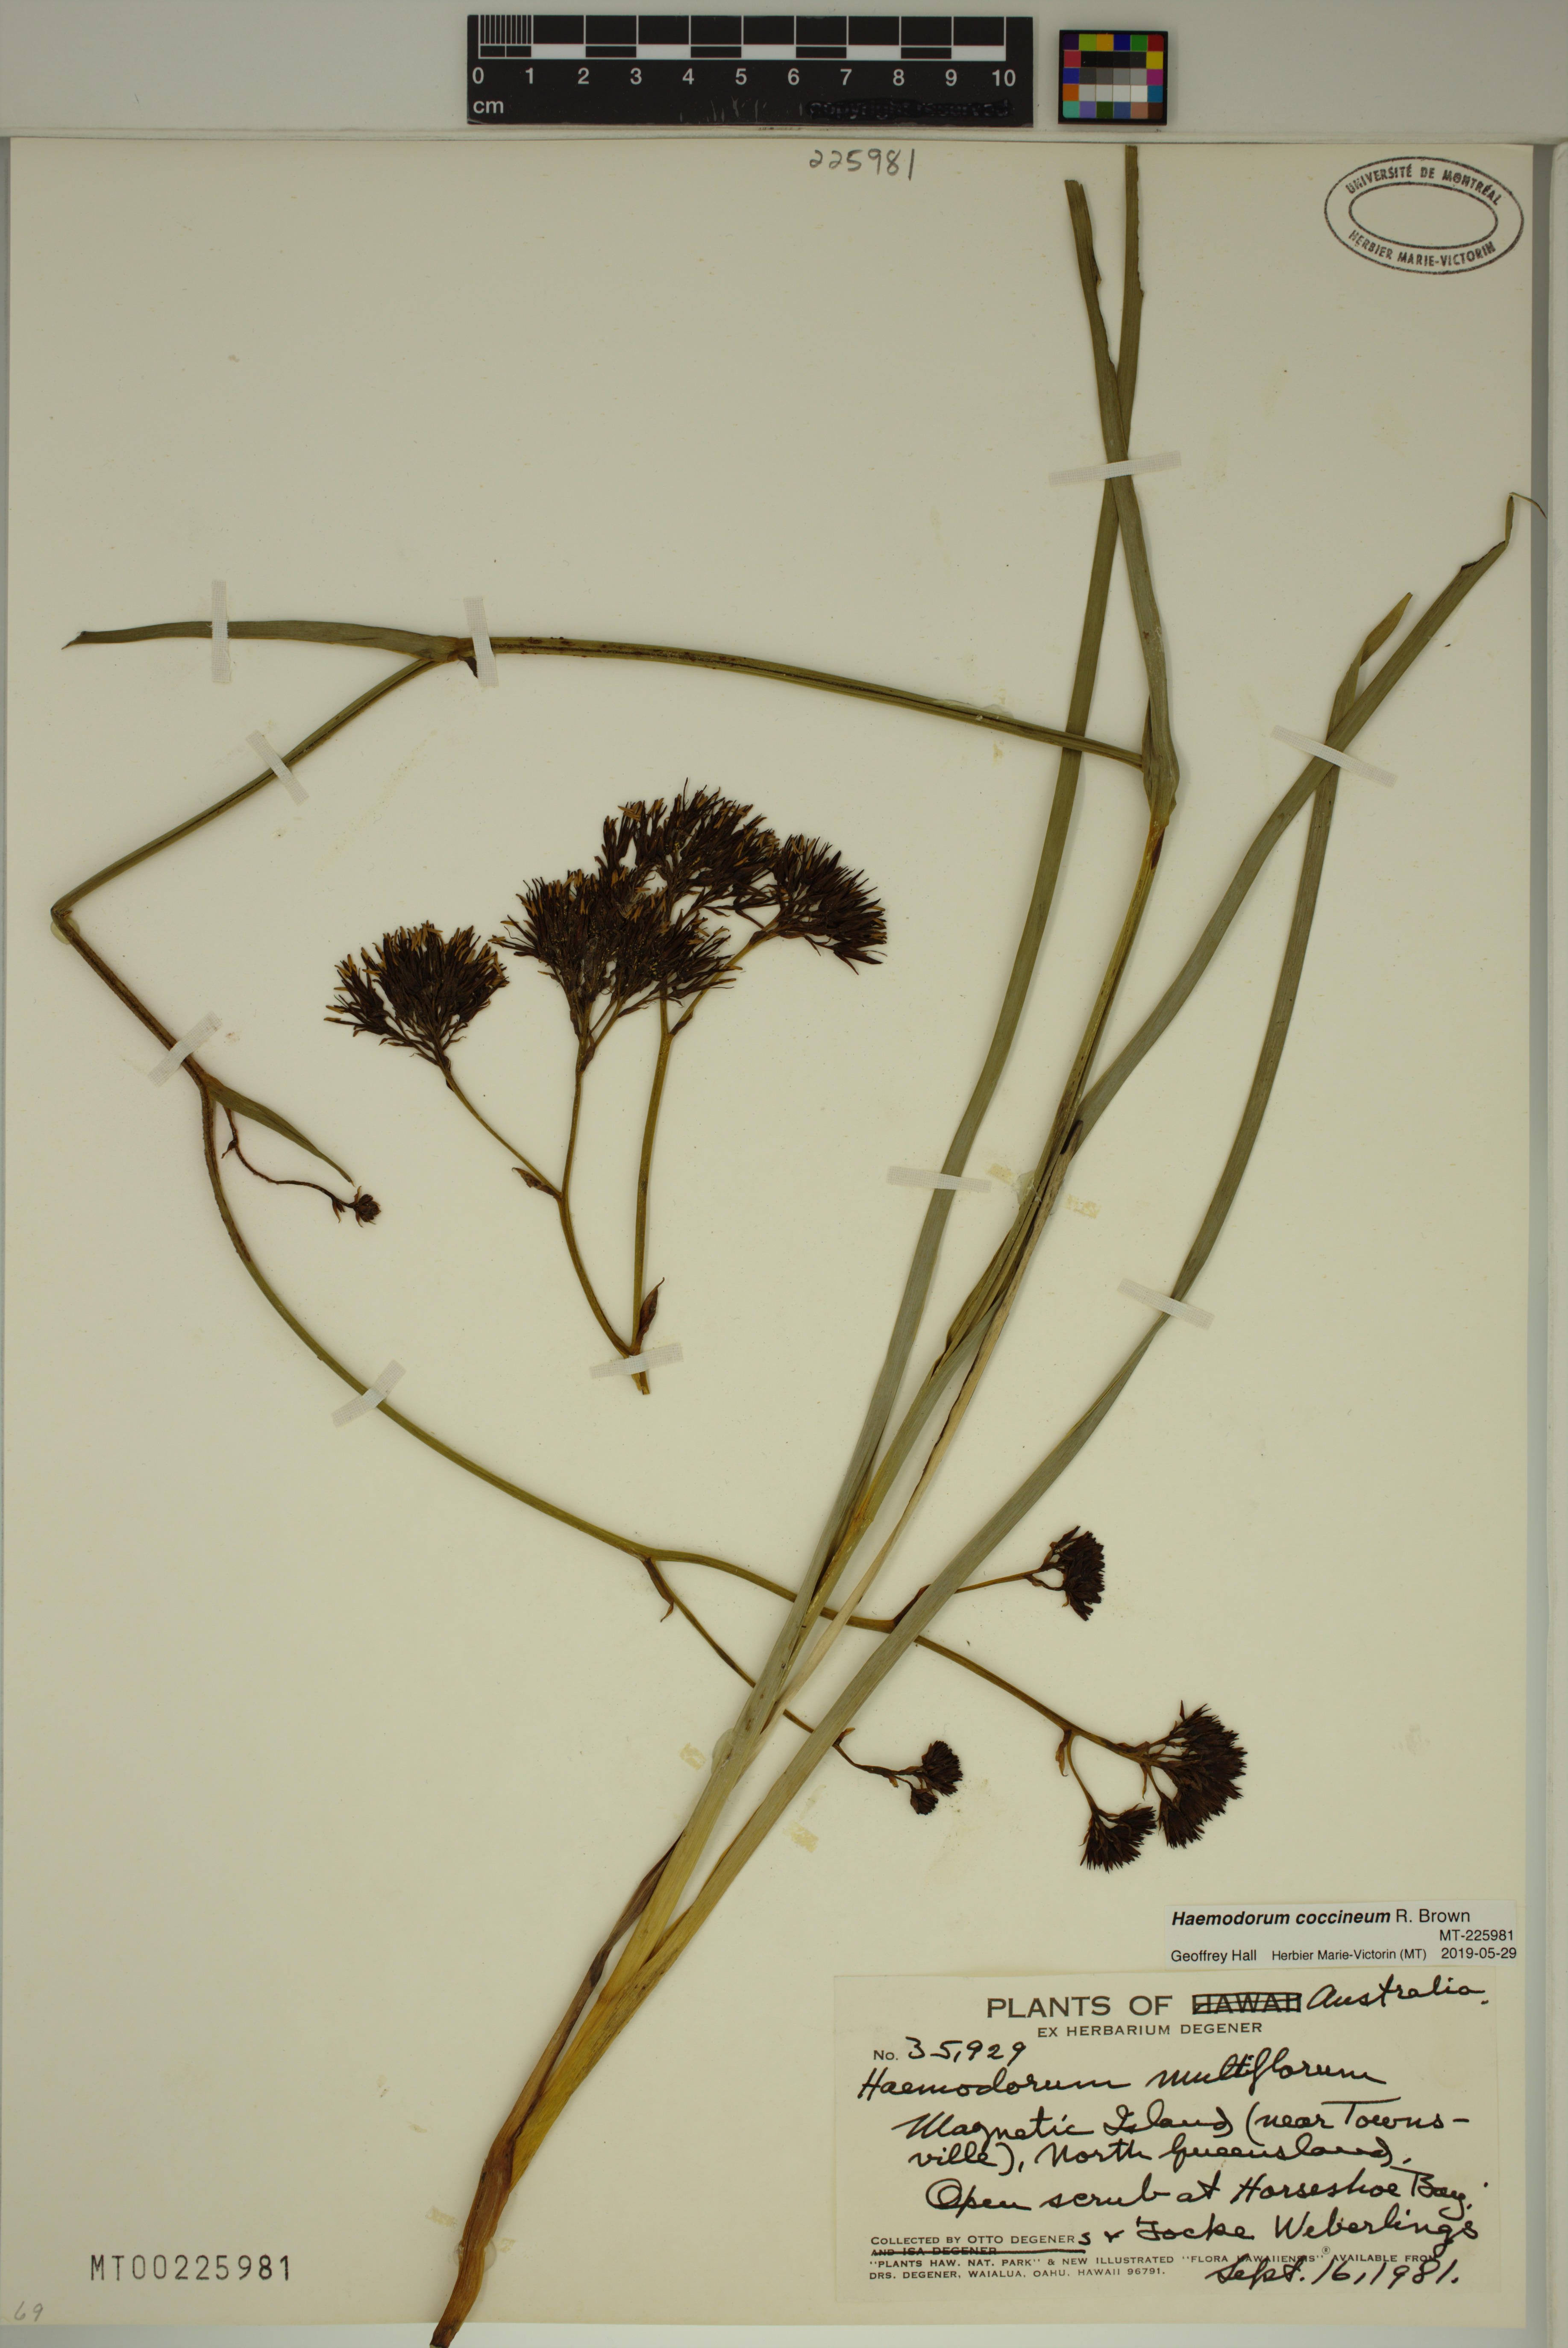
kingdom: Plantae
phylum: Tracheophyta
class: Liliopsida
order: Commelinales
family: Haemodoraceae
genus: Haemodorum
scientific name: Haemodorum coccineum
